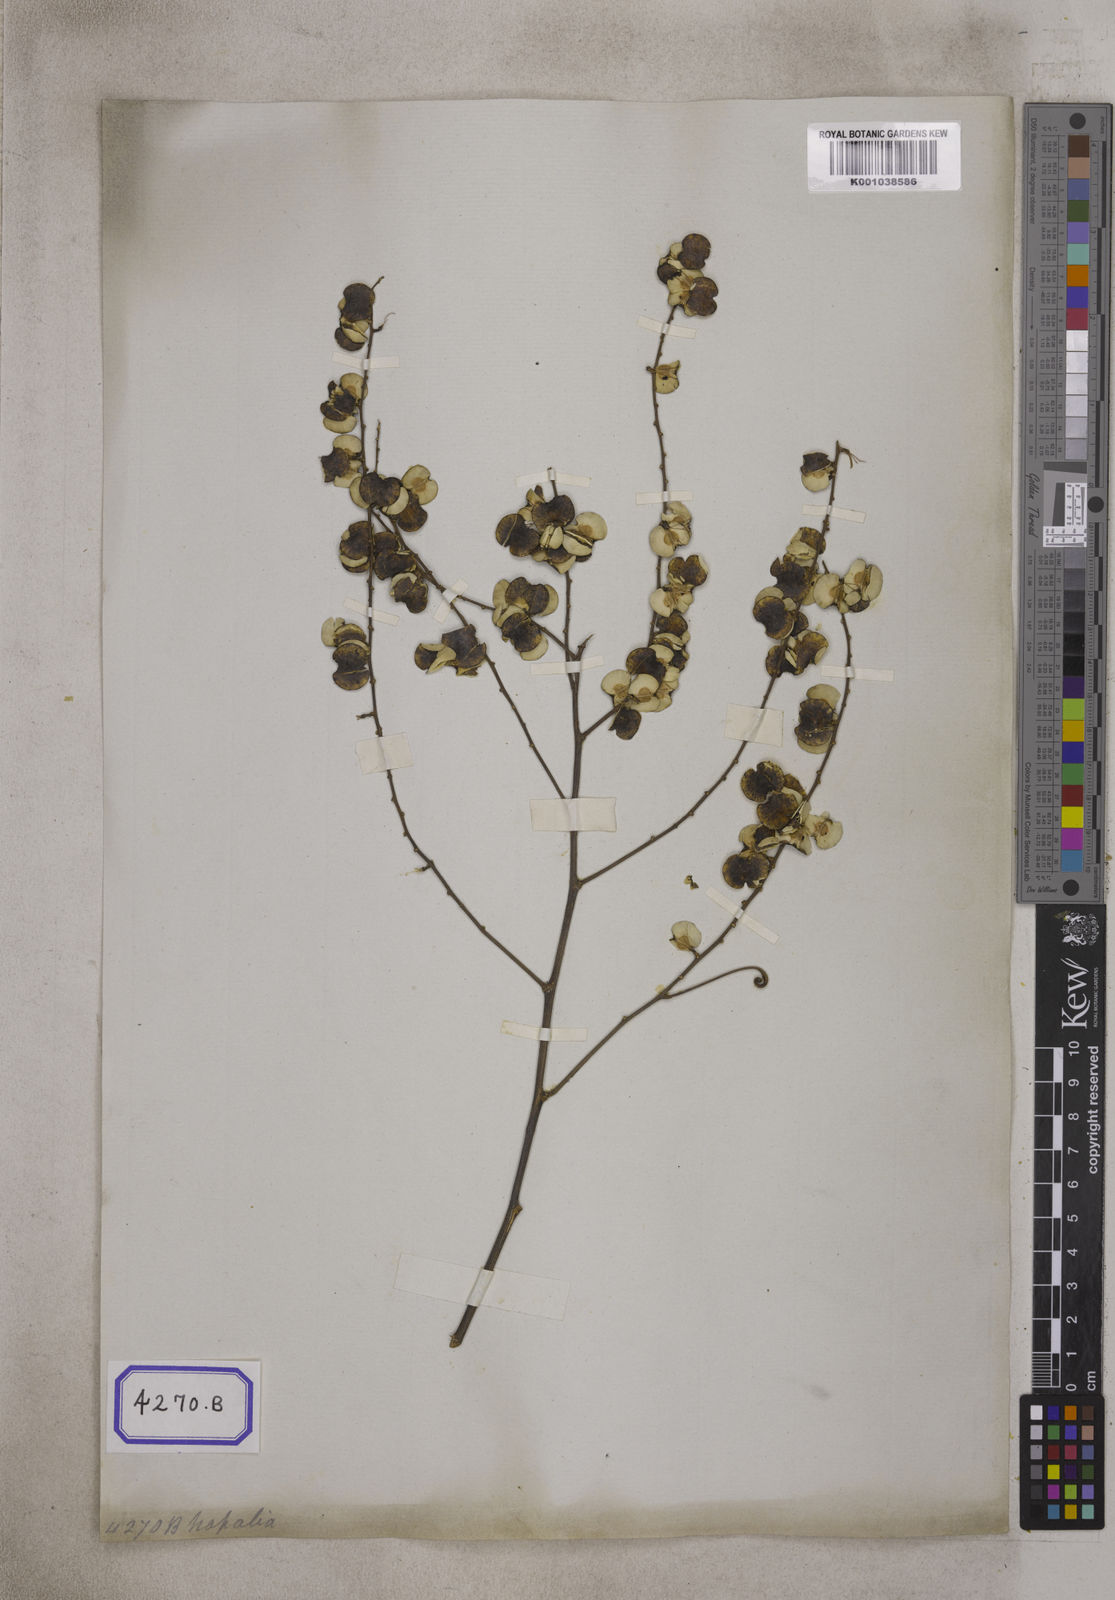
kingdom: Plantae
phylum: Tracheophyta
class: Magnoliopsida
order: Rosales
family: Rhamnaceae
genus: Gouania
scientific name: Gouania leptostachya
